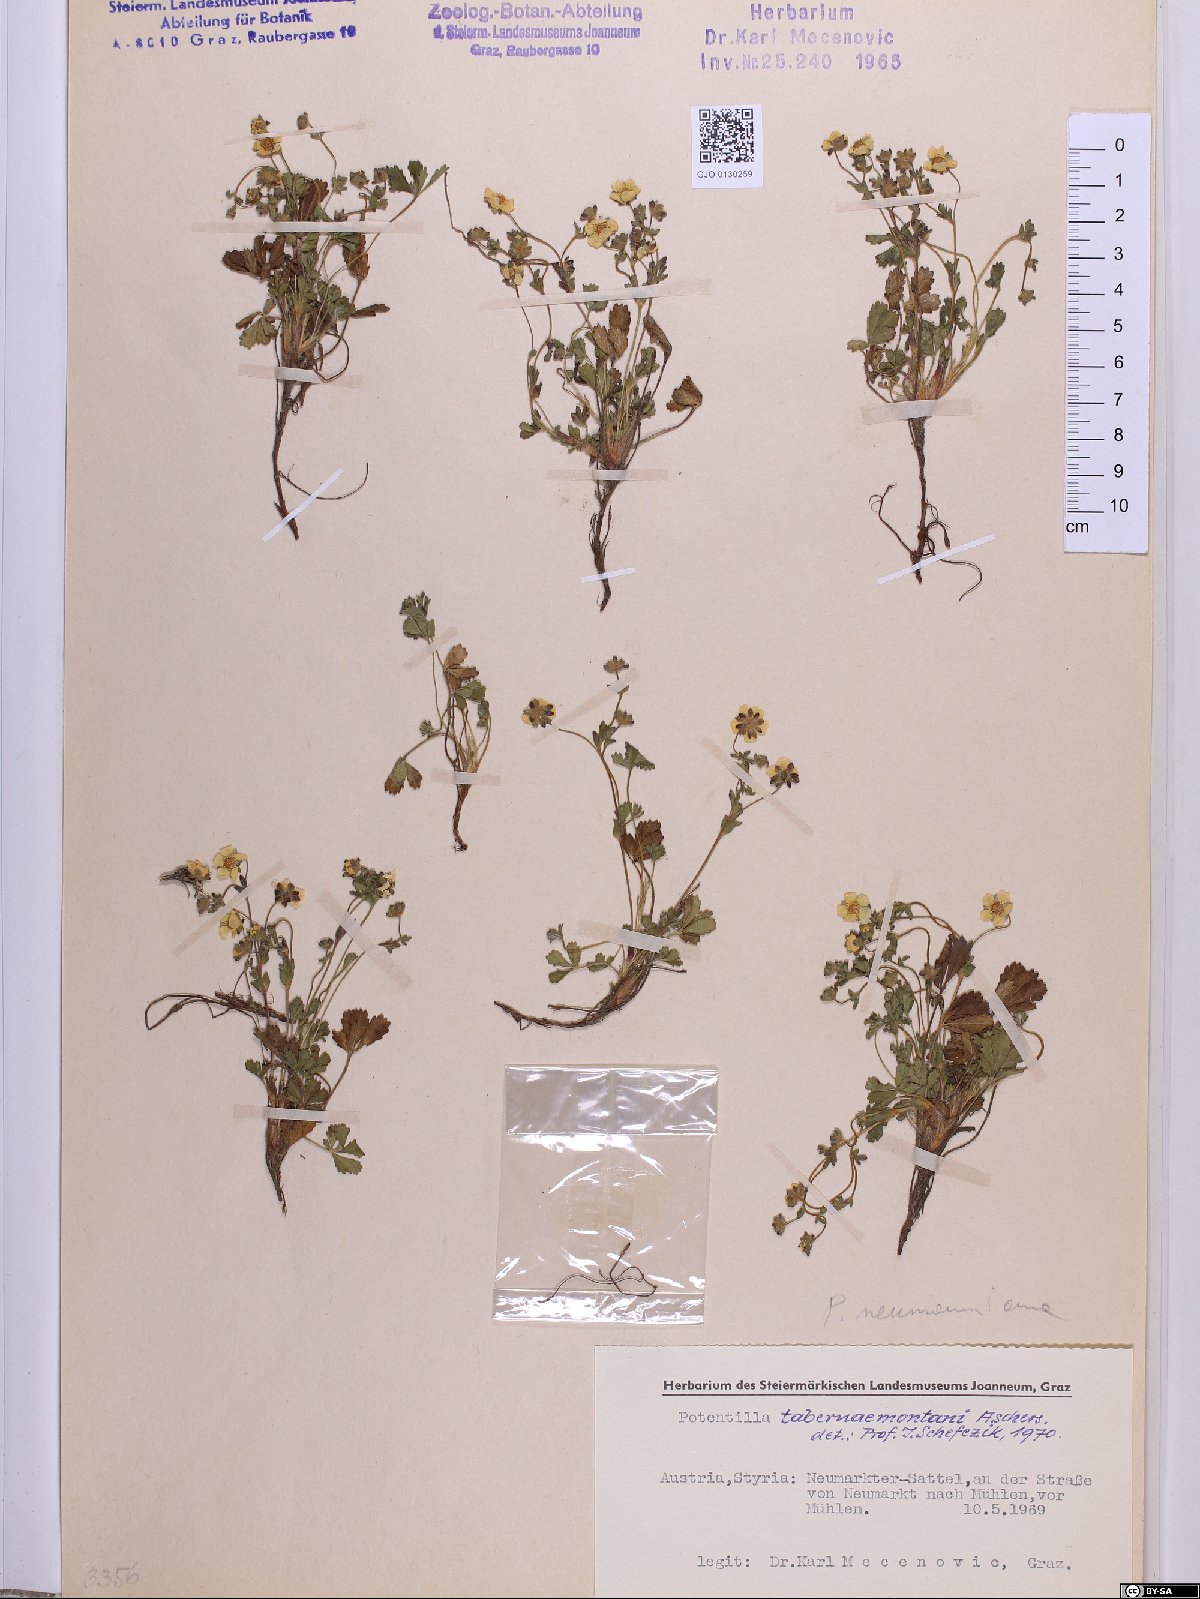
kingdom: Plantae
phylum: Tracheophyta
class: Magnoliopsida
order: Rosales
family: Rosaceae
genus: Potentilla
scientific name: Potentilla verna
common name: Spring cinquefoil
